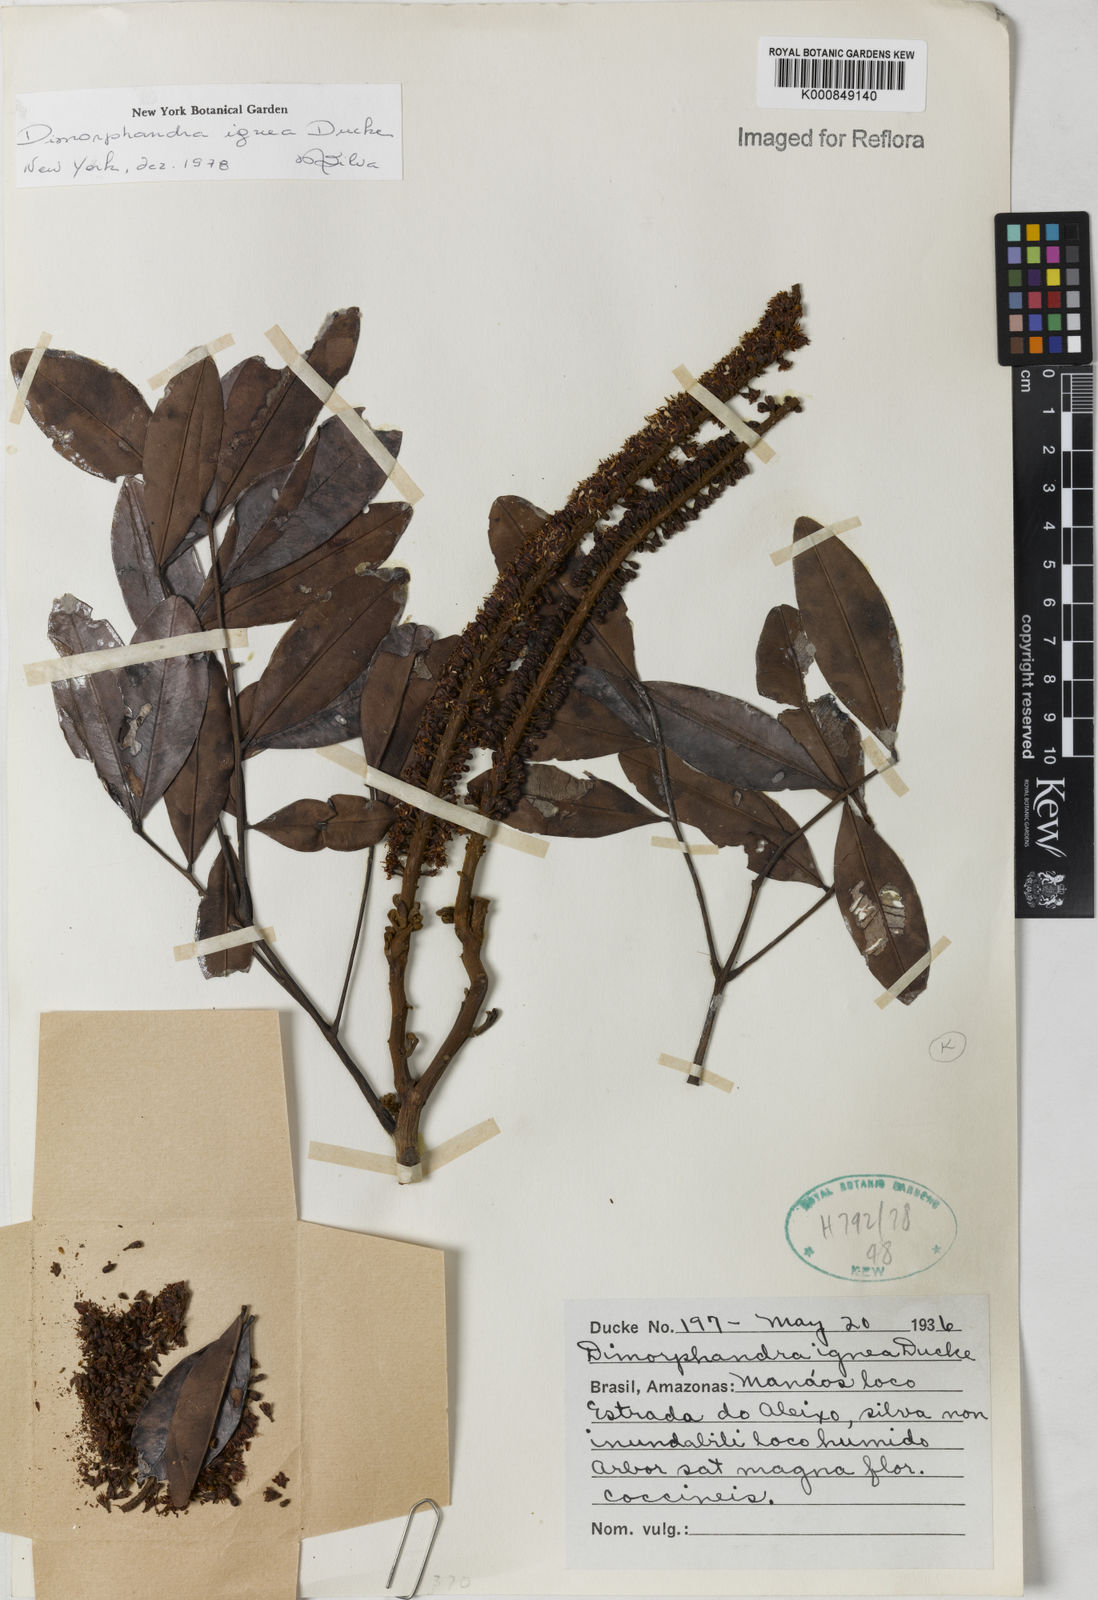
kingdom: Plantae
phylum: Tracheophyta
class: Magnoliopsida
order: Fabales
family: Fabaceae
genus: Dimorphandra
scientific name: Dimorphandra ignea
